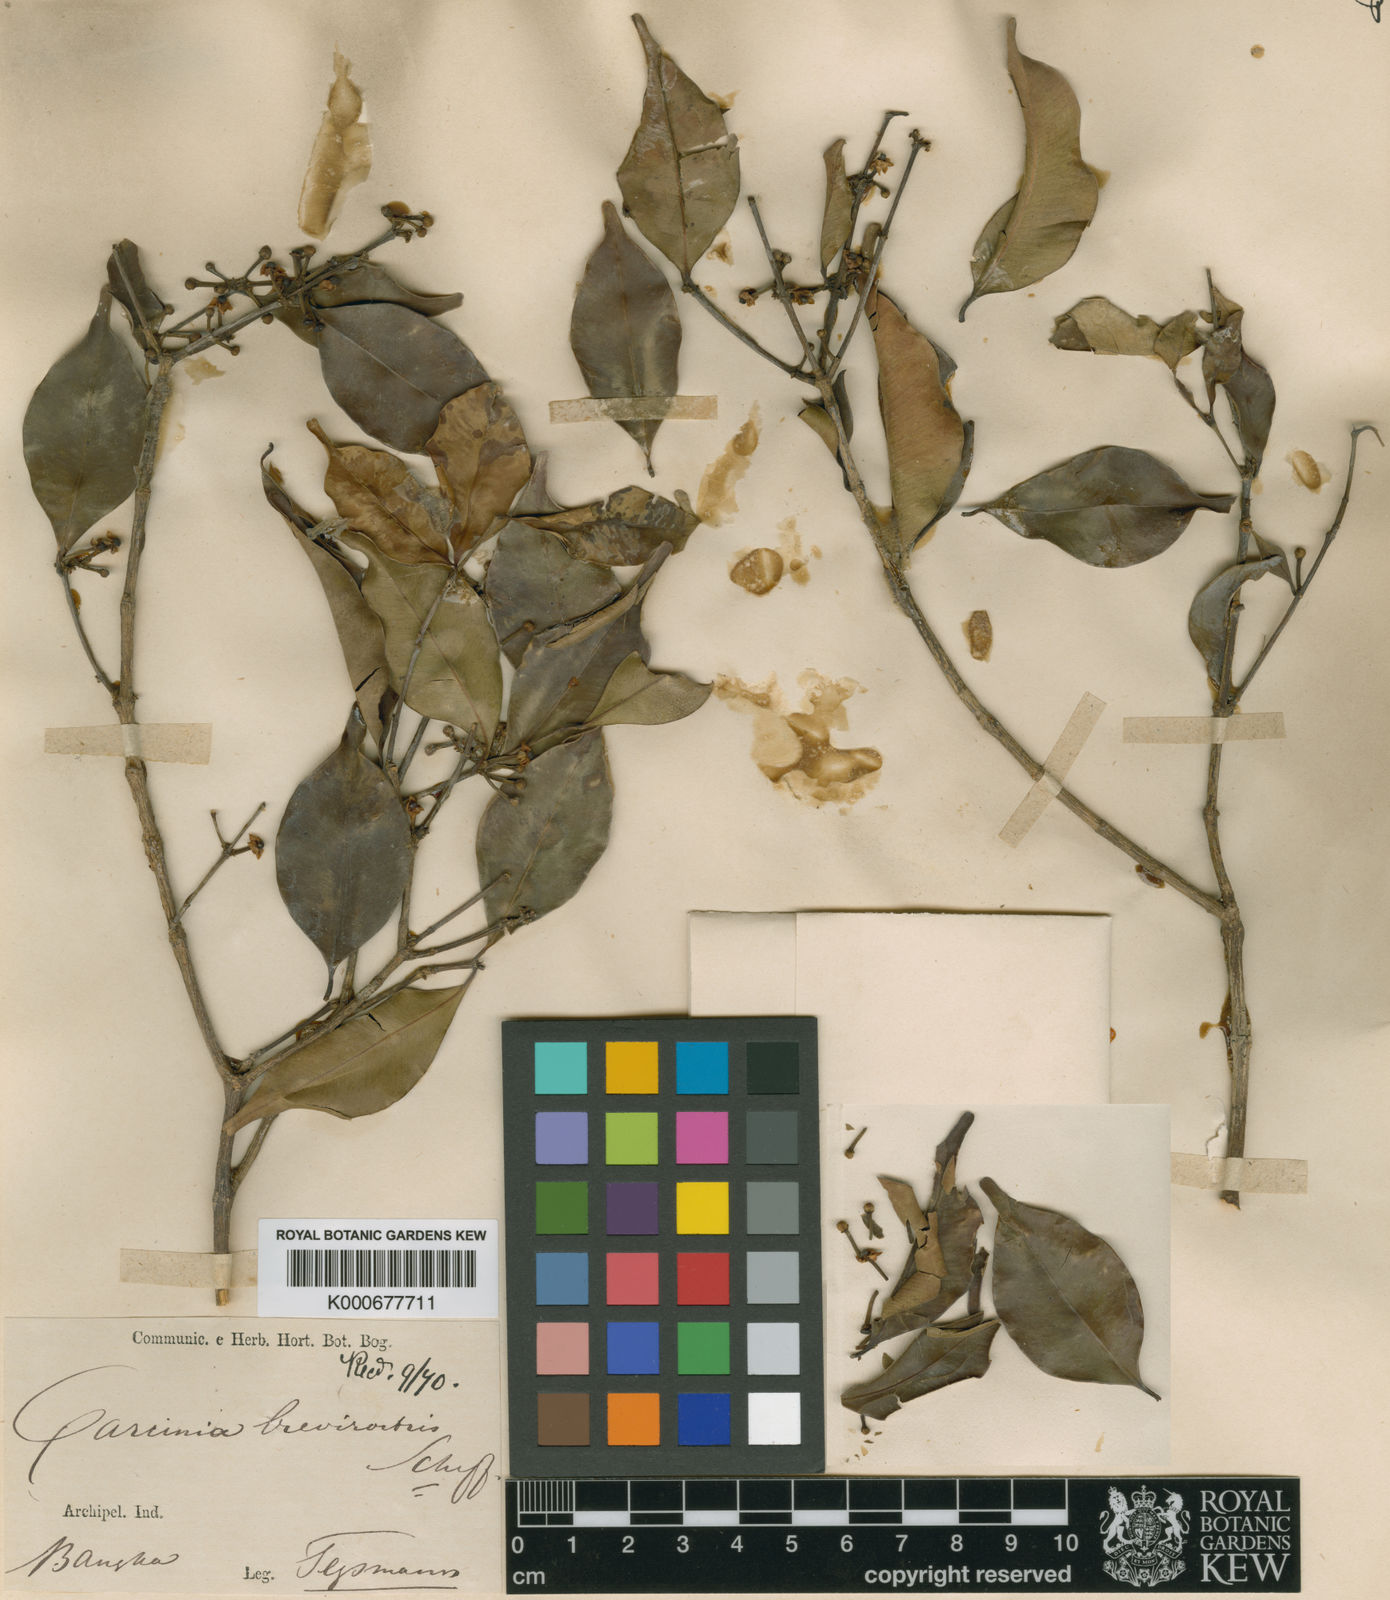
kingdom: Plantae
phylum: Tracheophyta
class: Magnoliopsida
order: Malpighiales
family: Clusiaceae
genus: Garcinia
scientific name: Garcinia brevirostris
